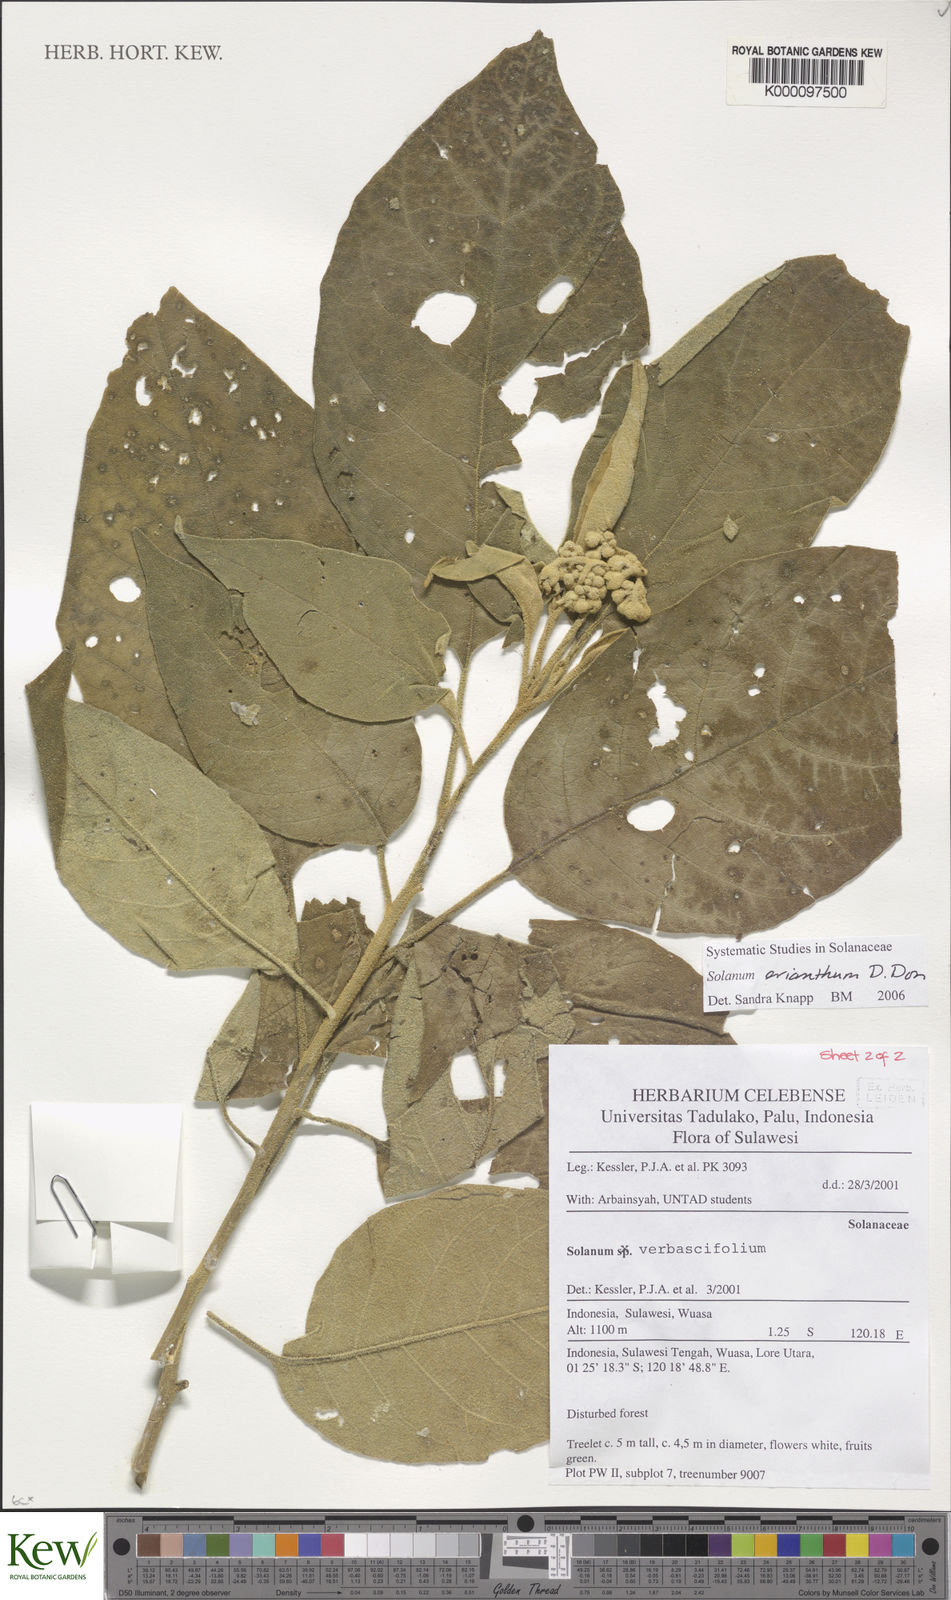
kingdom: Plantae
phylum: Tracheophyta
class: Magnoliopsida
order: Solanales
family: Solanaceae
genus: Solanum
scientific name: Solanum erianthum
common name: Tobacco-tree
